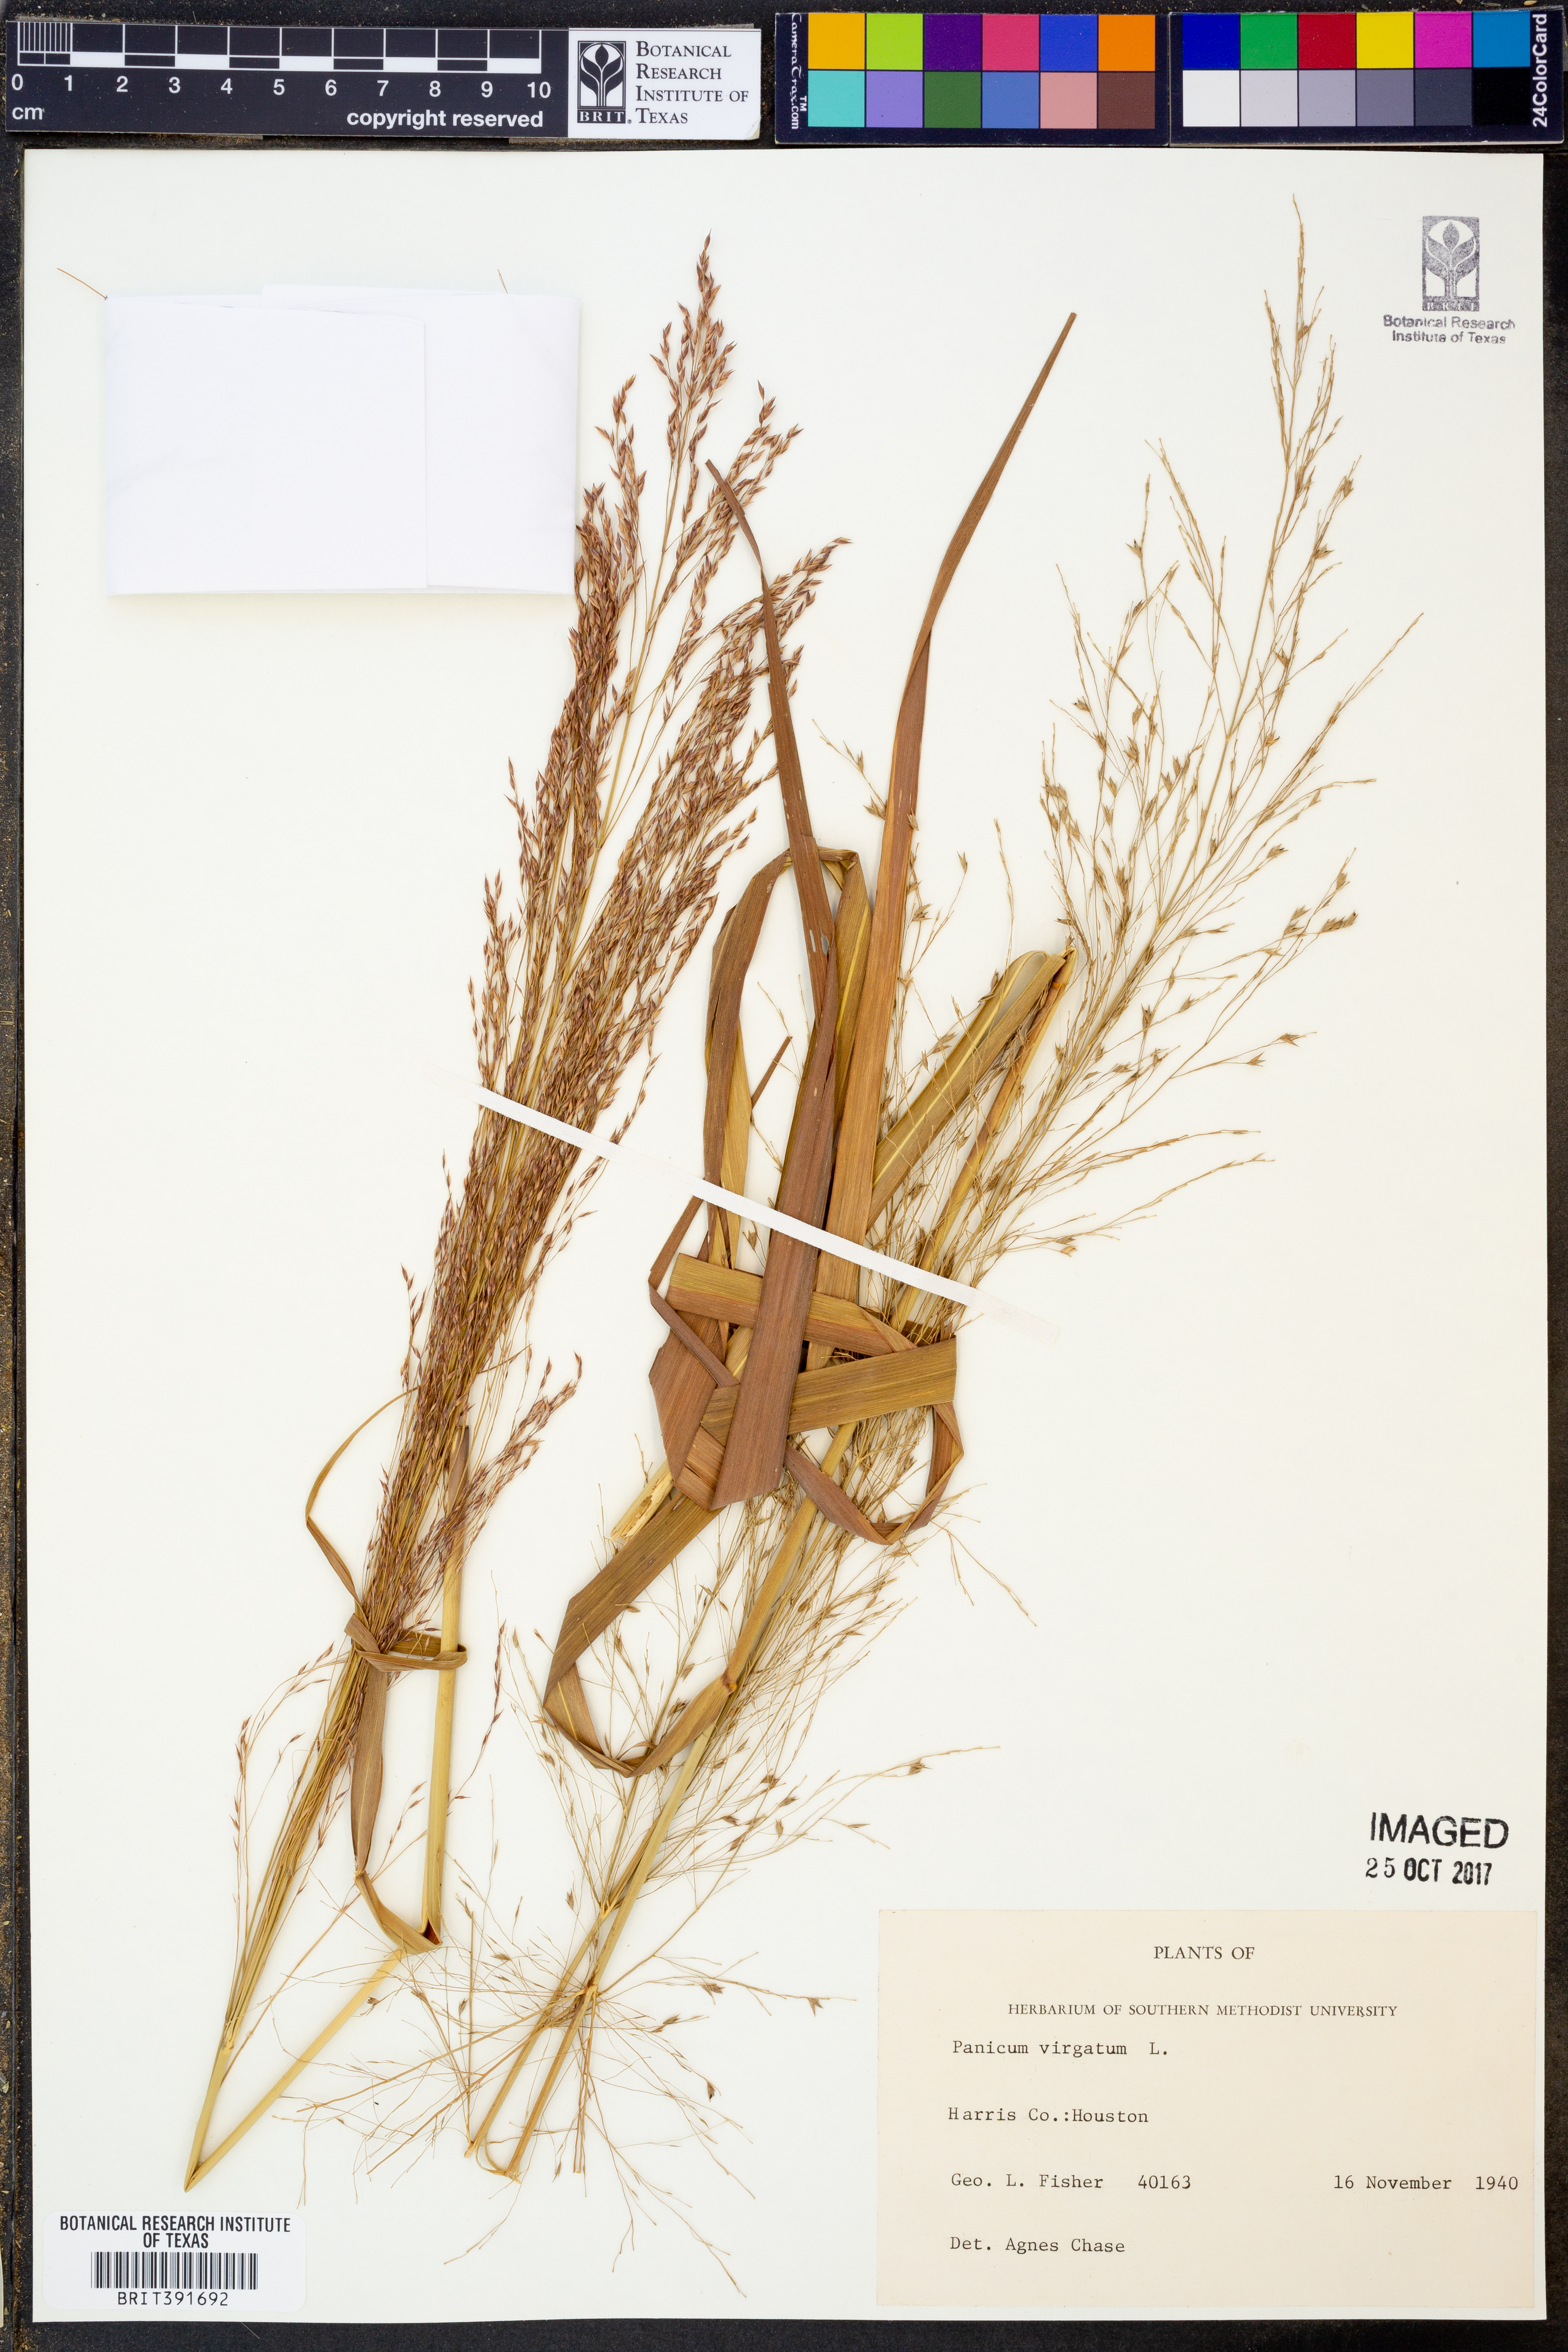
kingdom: Plantae
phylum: Tracheophyta
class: Liliopsida
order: Poales
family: Poaceae
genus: Panicum
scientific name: Panicum virgatum
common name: Switchgrass
